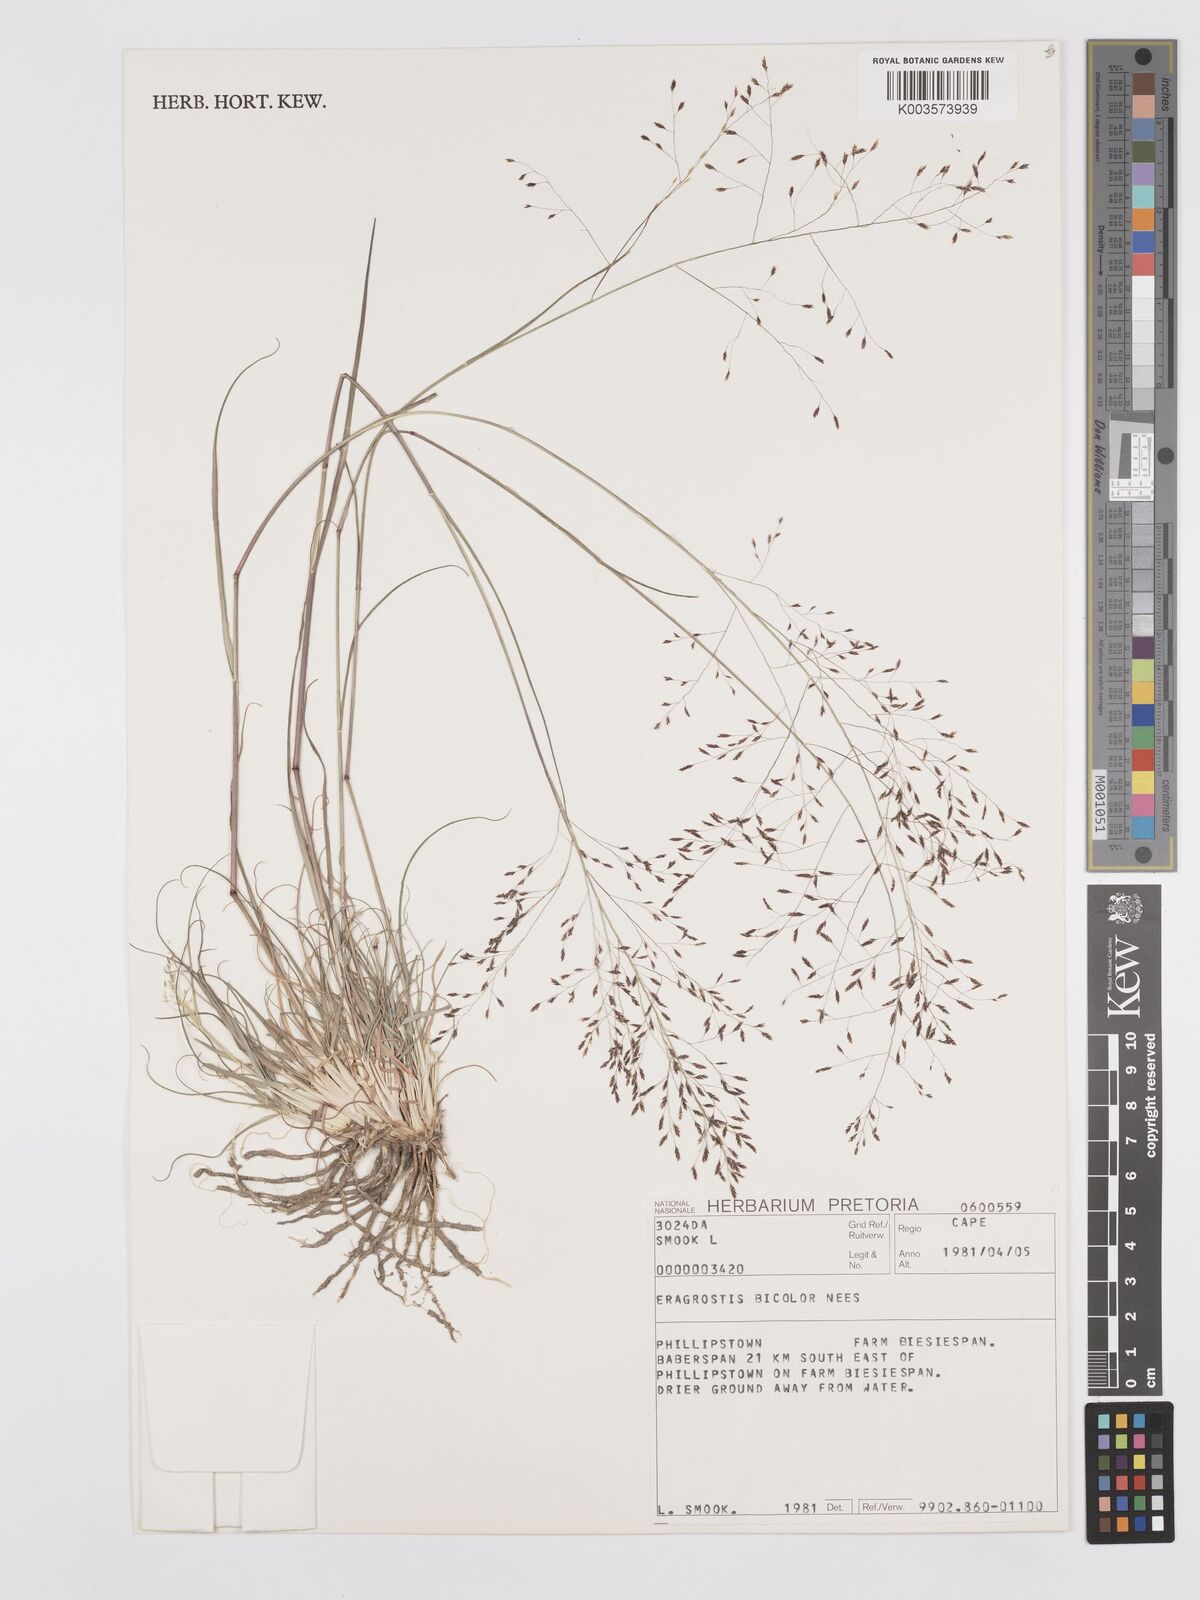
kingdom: Plantae
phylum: Tracheophyta
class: Liliopsida
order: Poales
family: Poaceae
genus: Eragrostis
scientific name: Eragrostis
